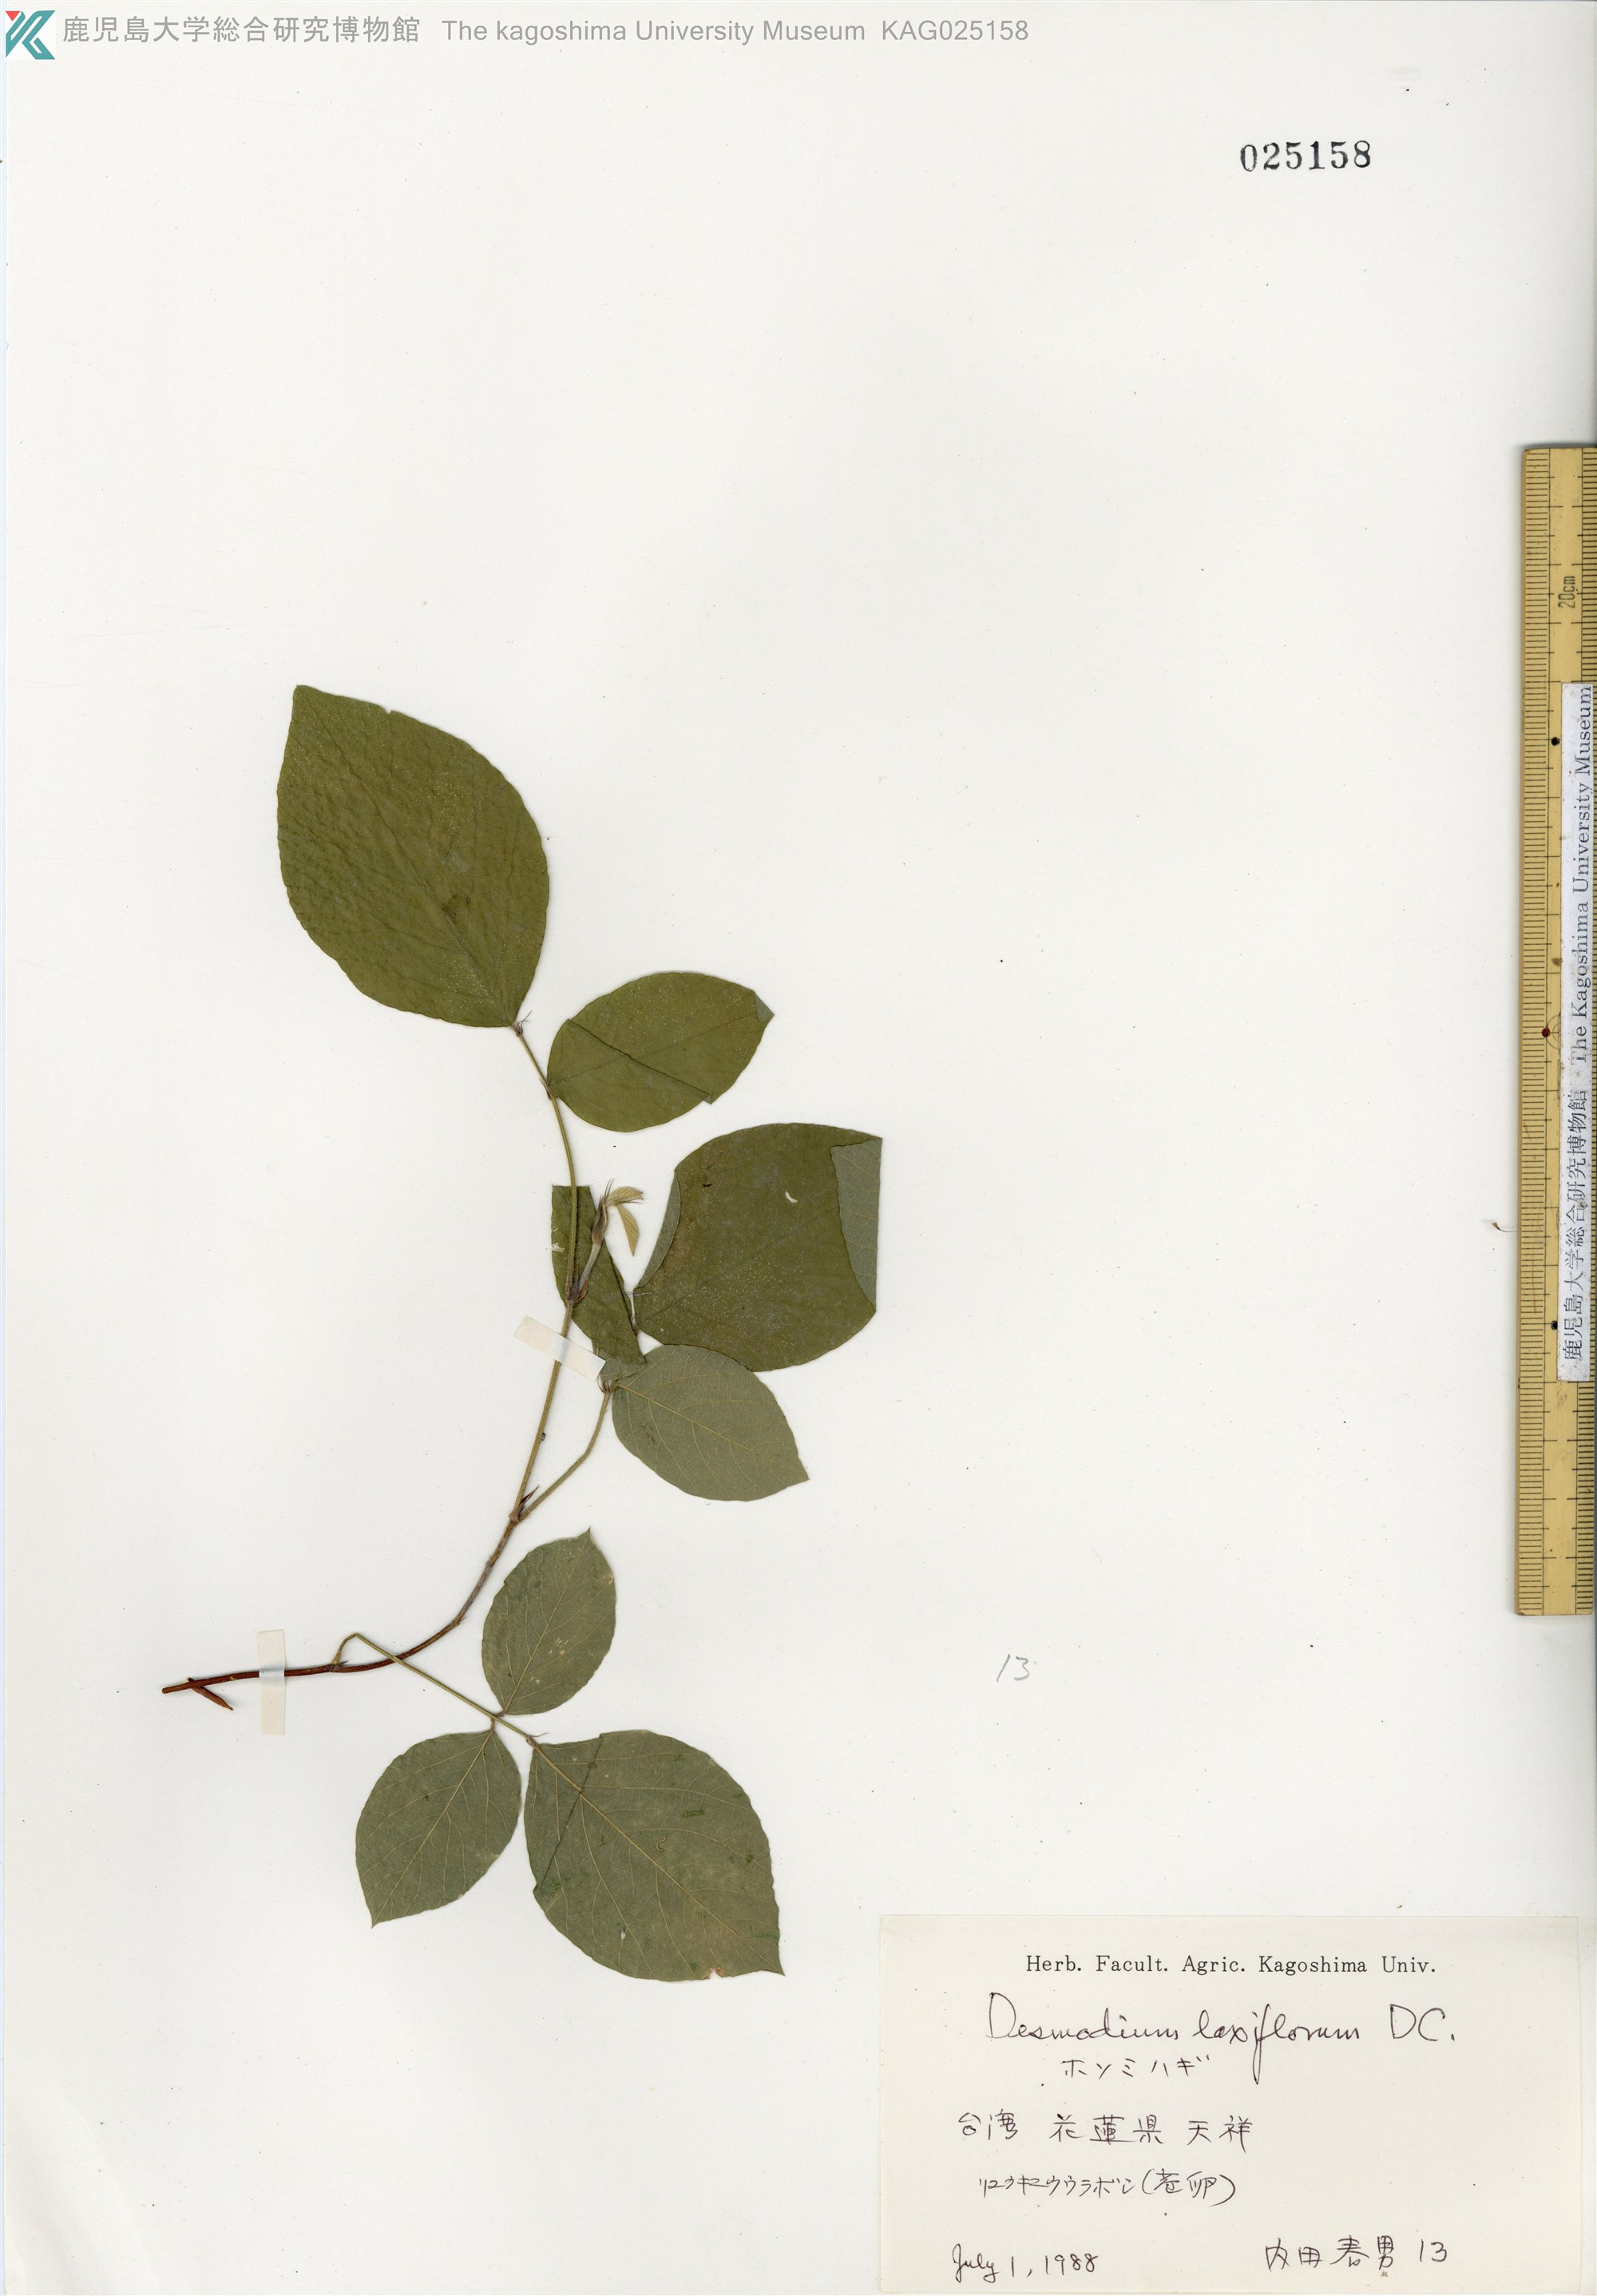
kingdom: Plantae
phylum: Tracheophyta
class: Magnoliopsida
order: Fabales
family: Fabaceae
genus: Sohmaea
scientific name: Sohmaea laxiflora
